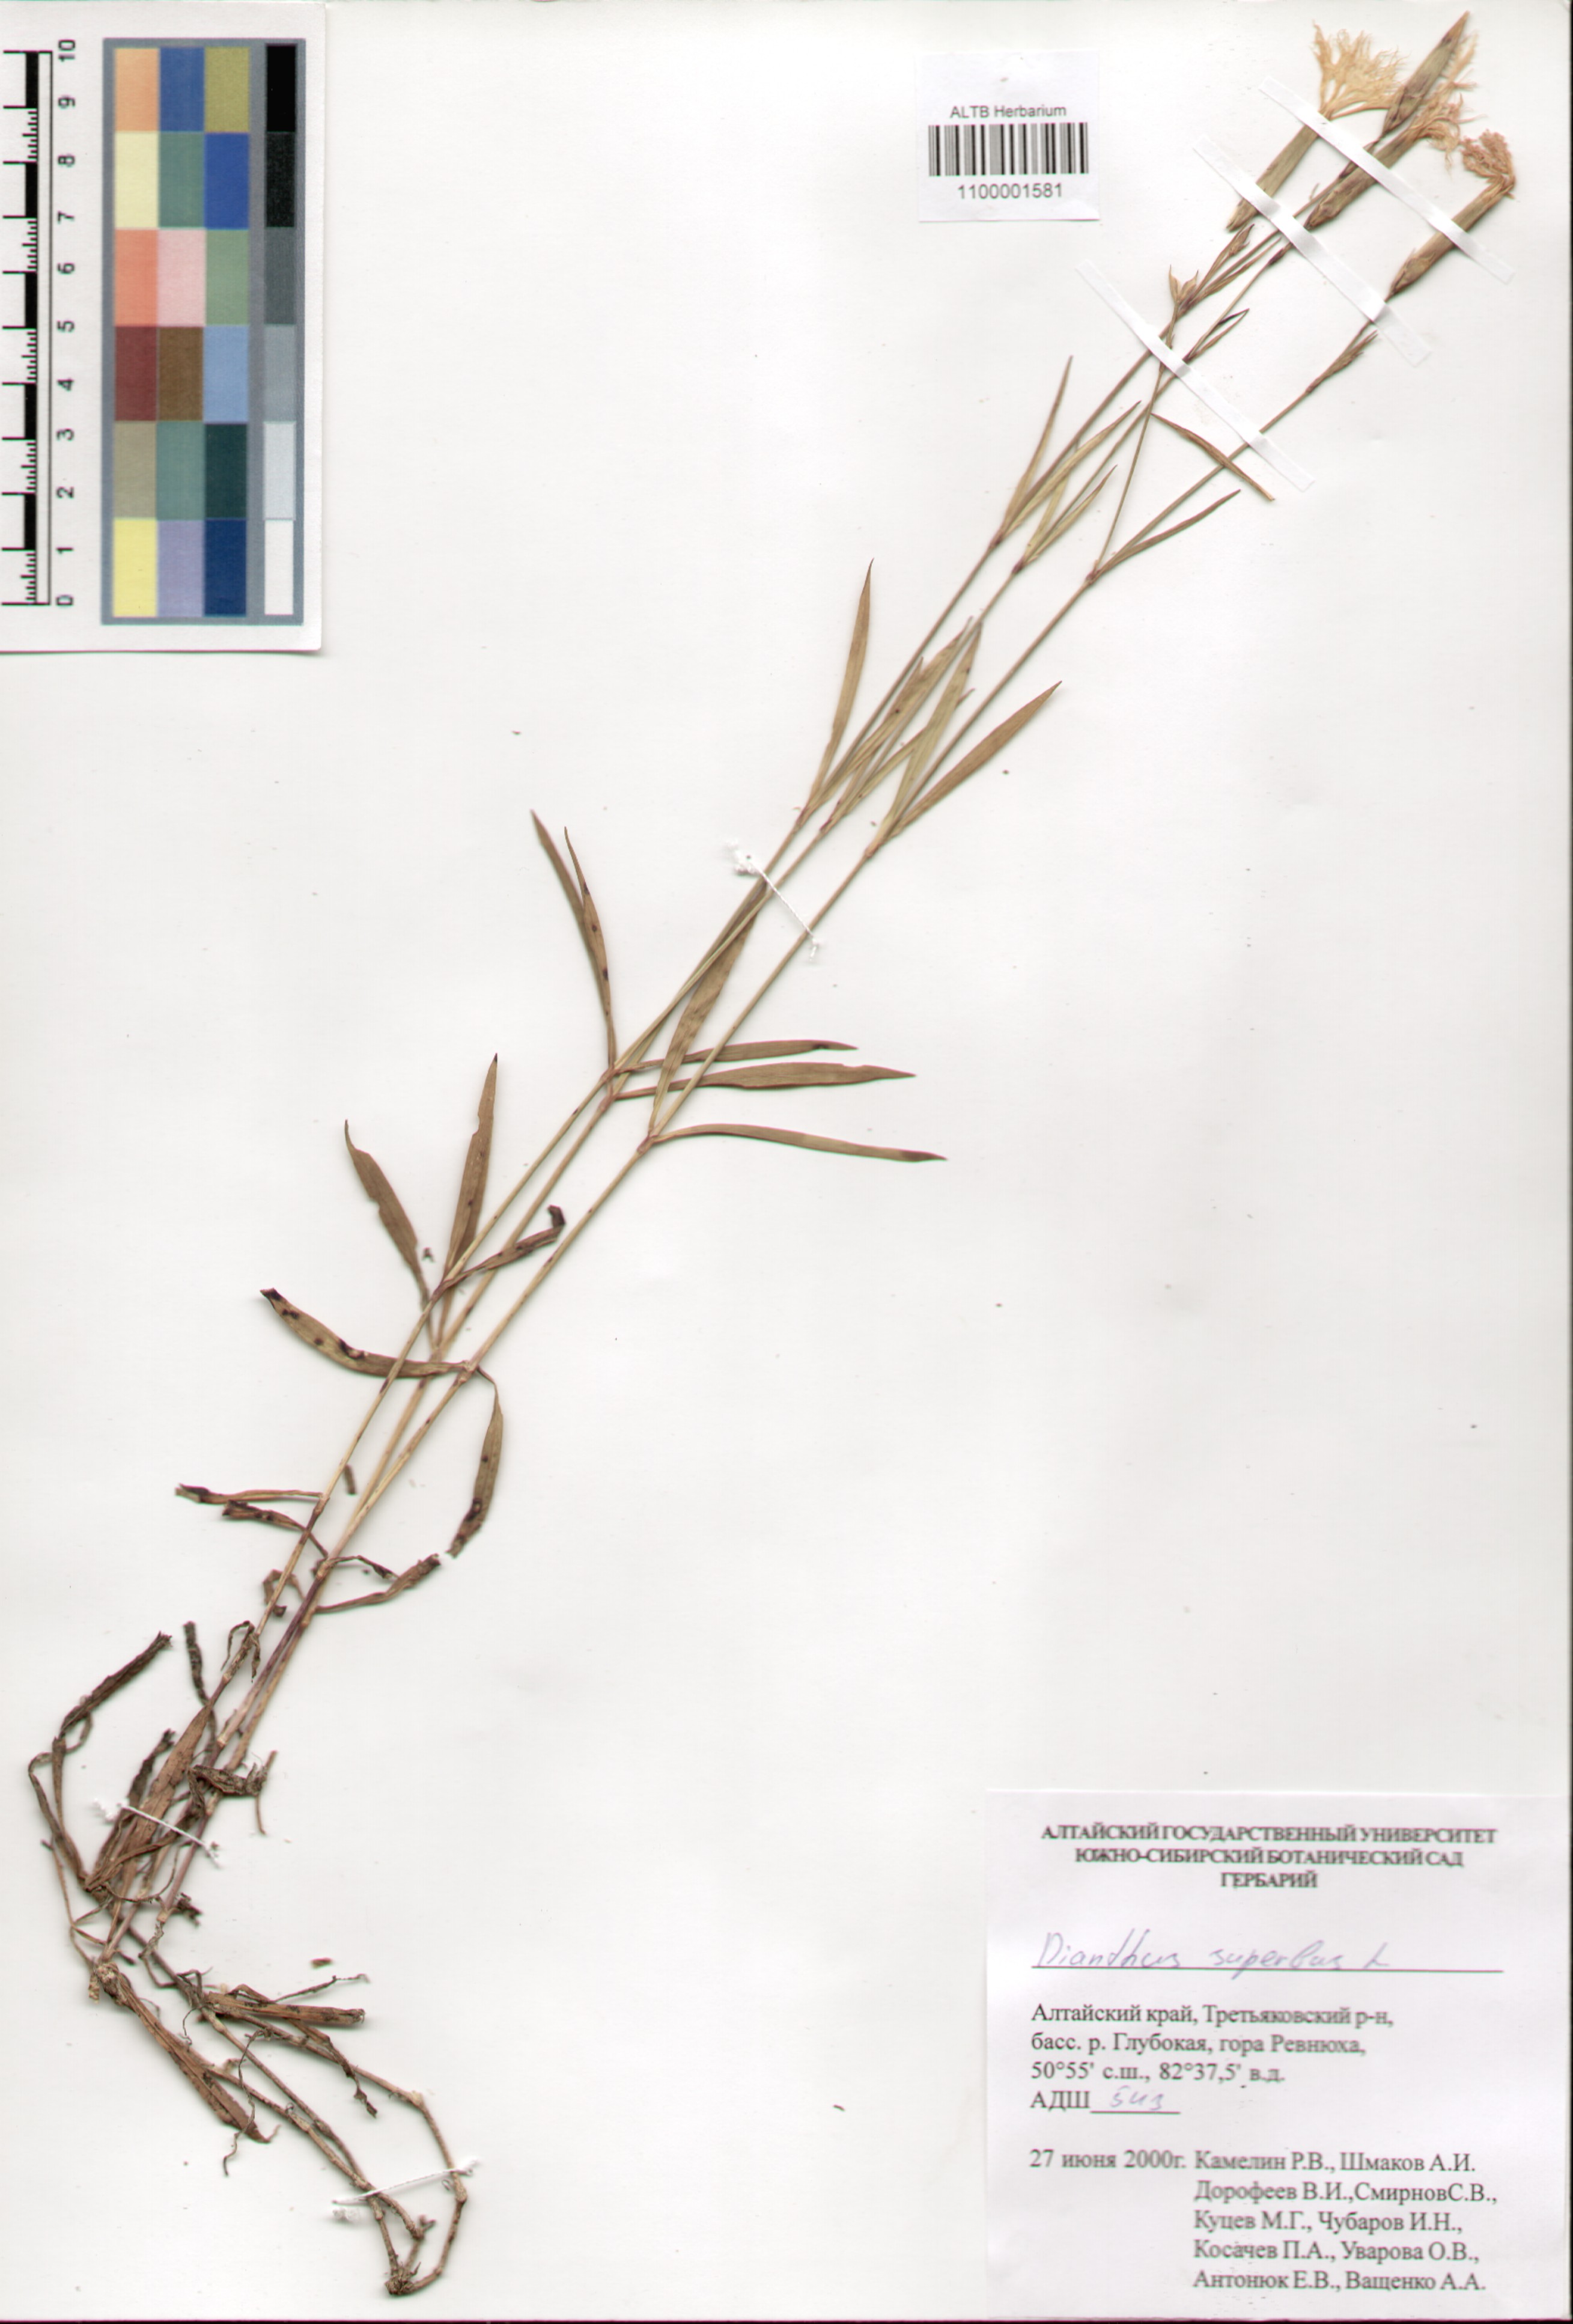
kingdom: Plantae
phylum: Tracheophyta
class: Magnoliopsida
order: Caryophyllales
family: Caryophyllaceae
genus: Dianthus
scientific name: Dianthus superbus
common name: Fringed pink
